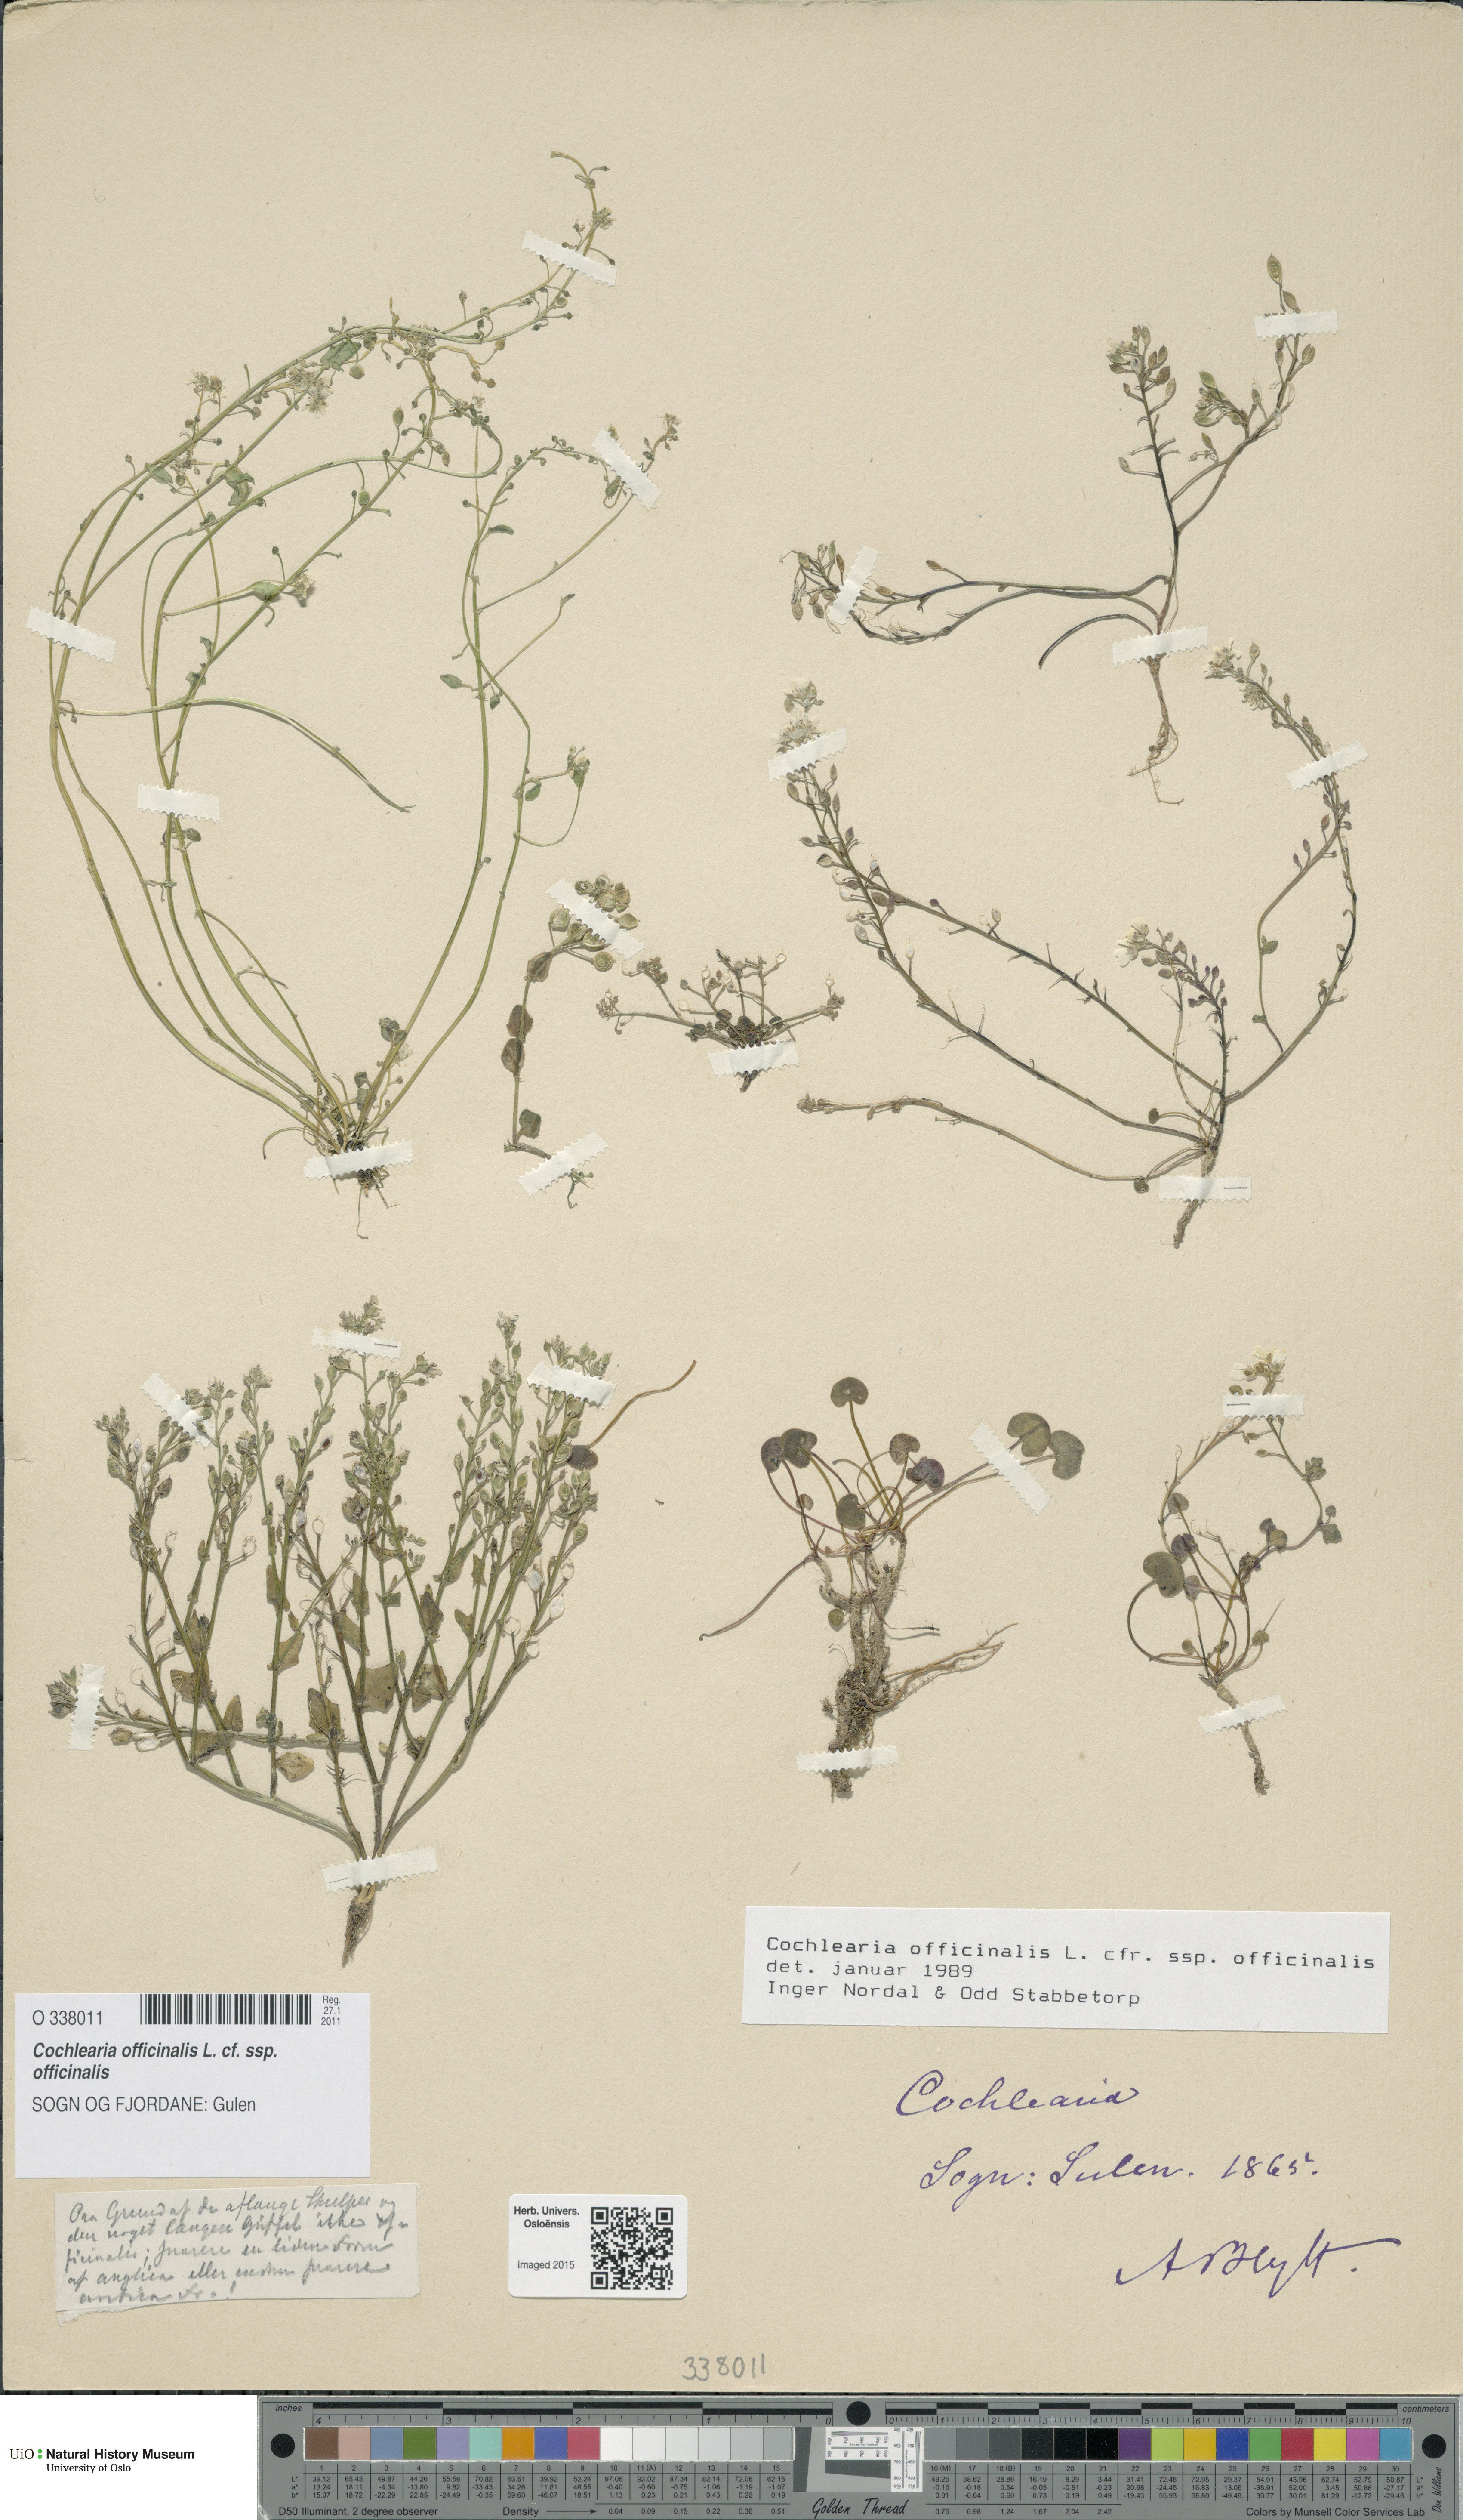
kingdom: Plantae
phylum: Tracheophyta
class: Magnoliopsida
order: Brassicales
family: Brassicaceae
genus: Cochlearia
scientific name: Cochlearia officinalis
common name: Scurvy-grass
